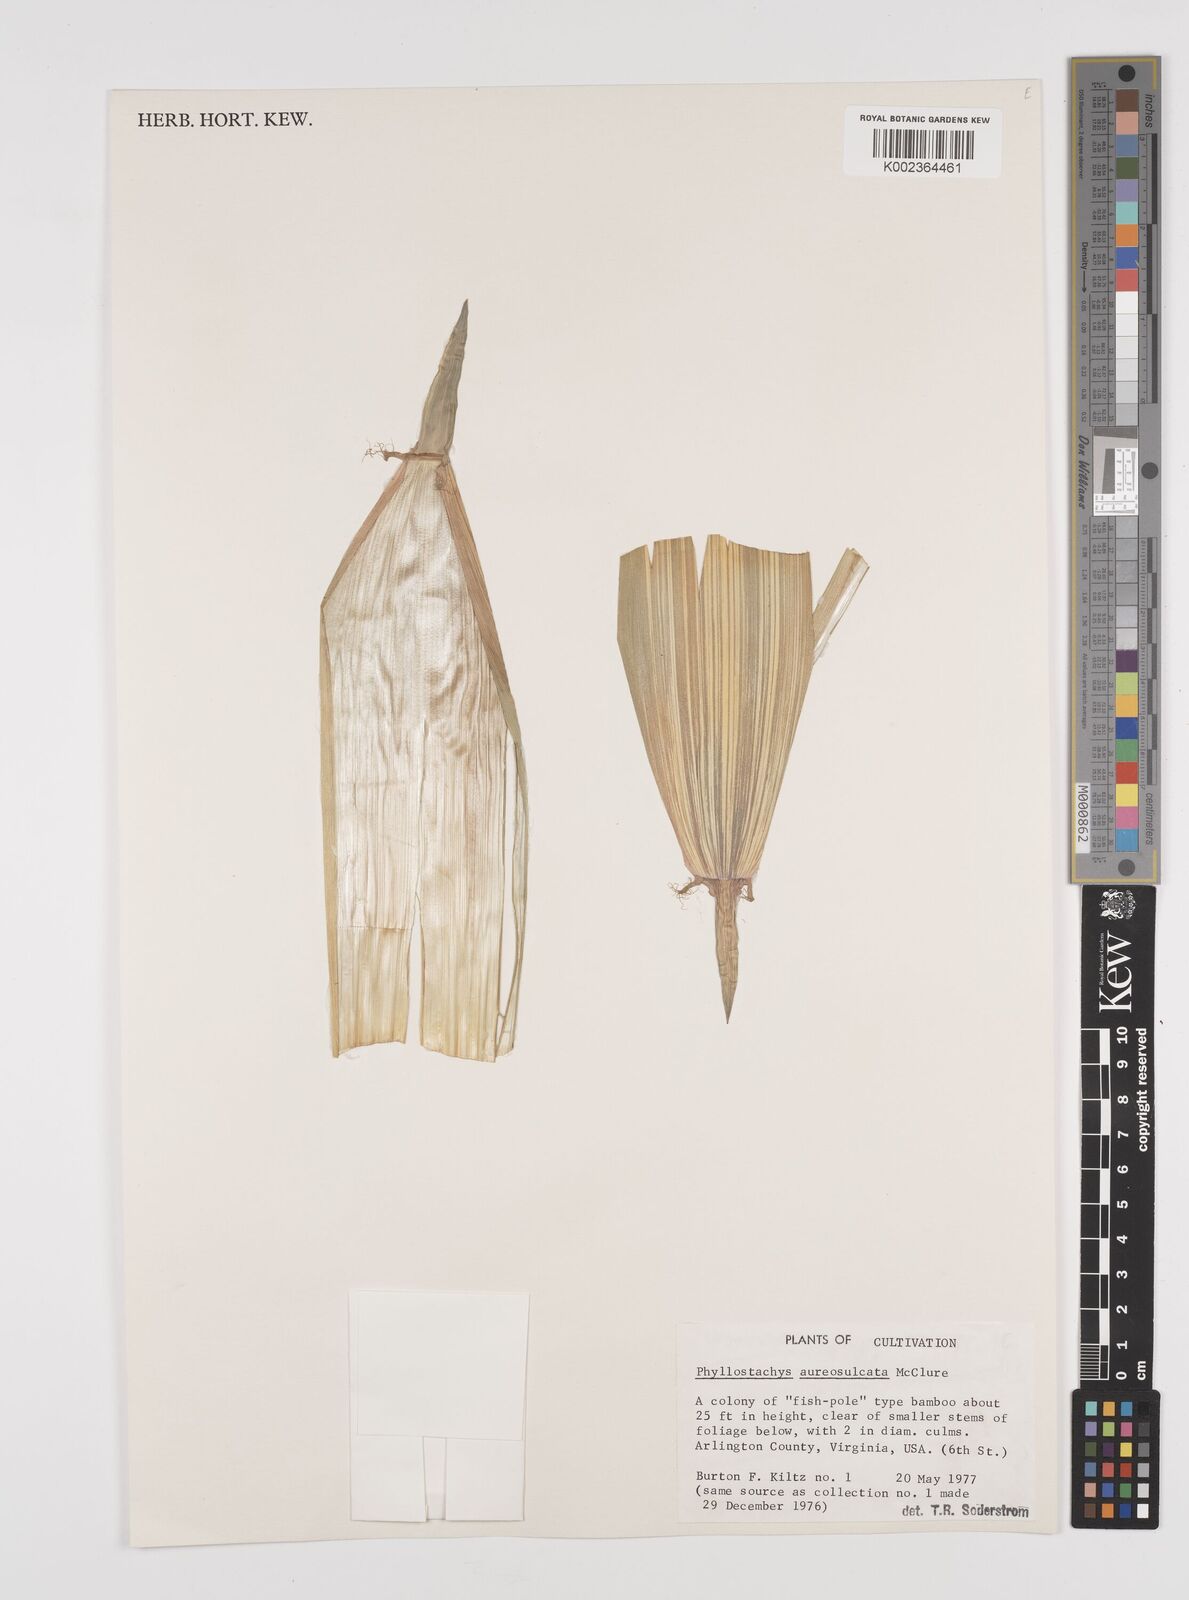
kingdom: Plantae
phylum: Tracheophyta
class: Liliopsida
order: Poales
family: Poaceae
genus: Phyllostachys
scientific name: Phyllostachys aureosulcata
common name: Yellow groove bamboo
